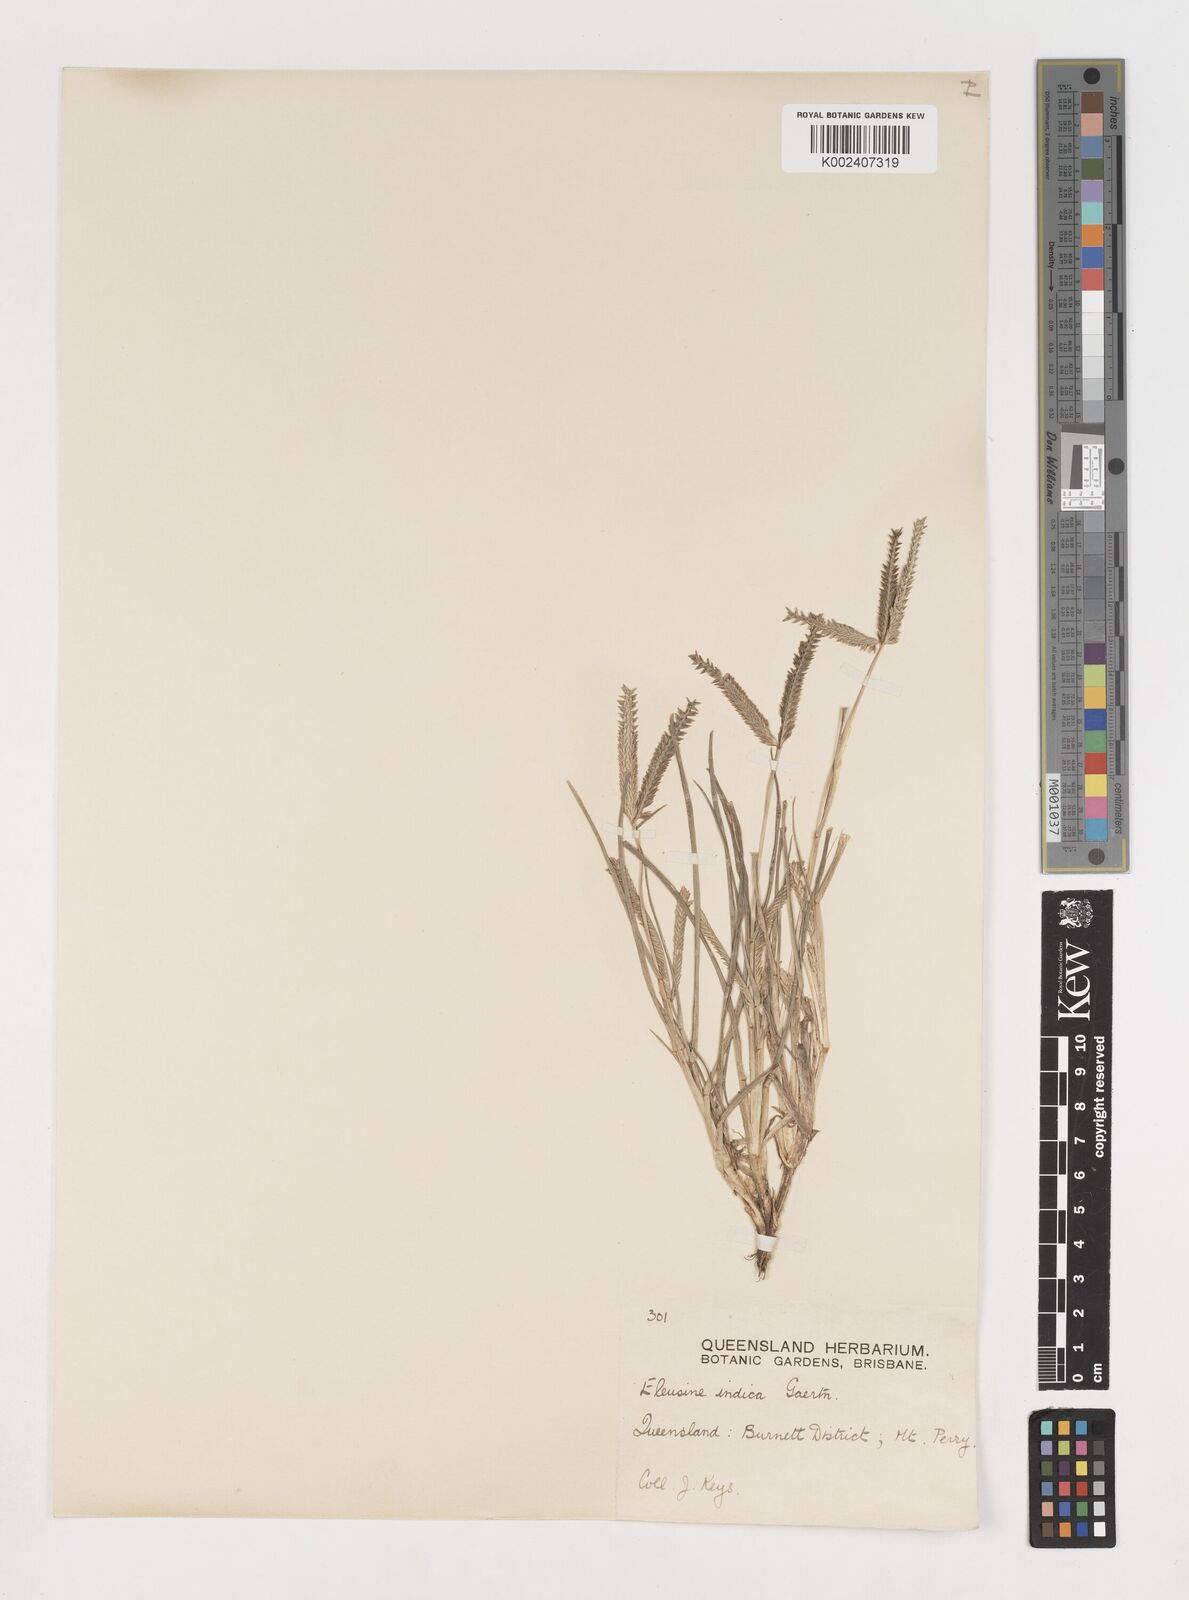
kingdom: Plantae
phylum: Tracheophyta
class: Liliopsida
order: Poales
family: Poaceae
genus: Eleusine
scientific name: Eleusine indica
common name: Yard-grass
